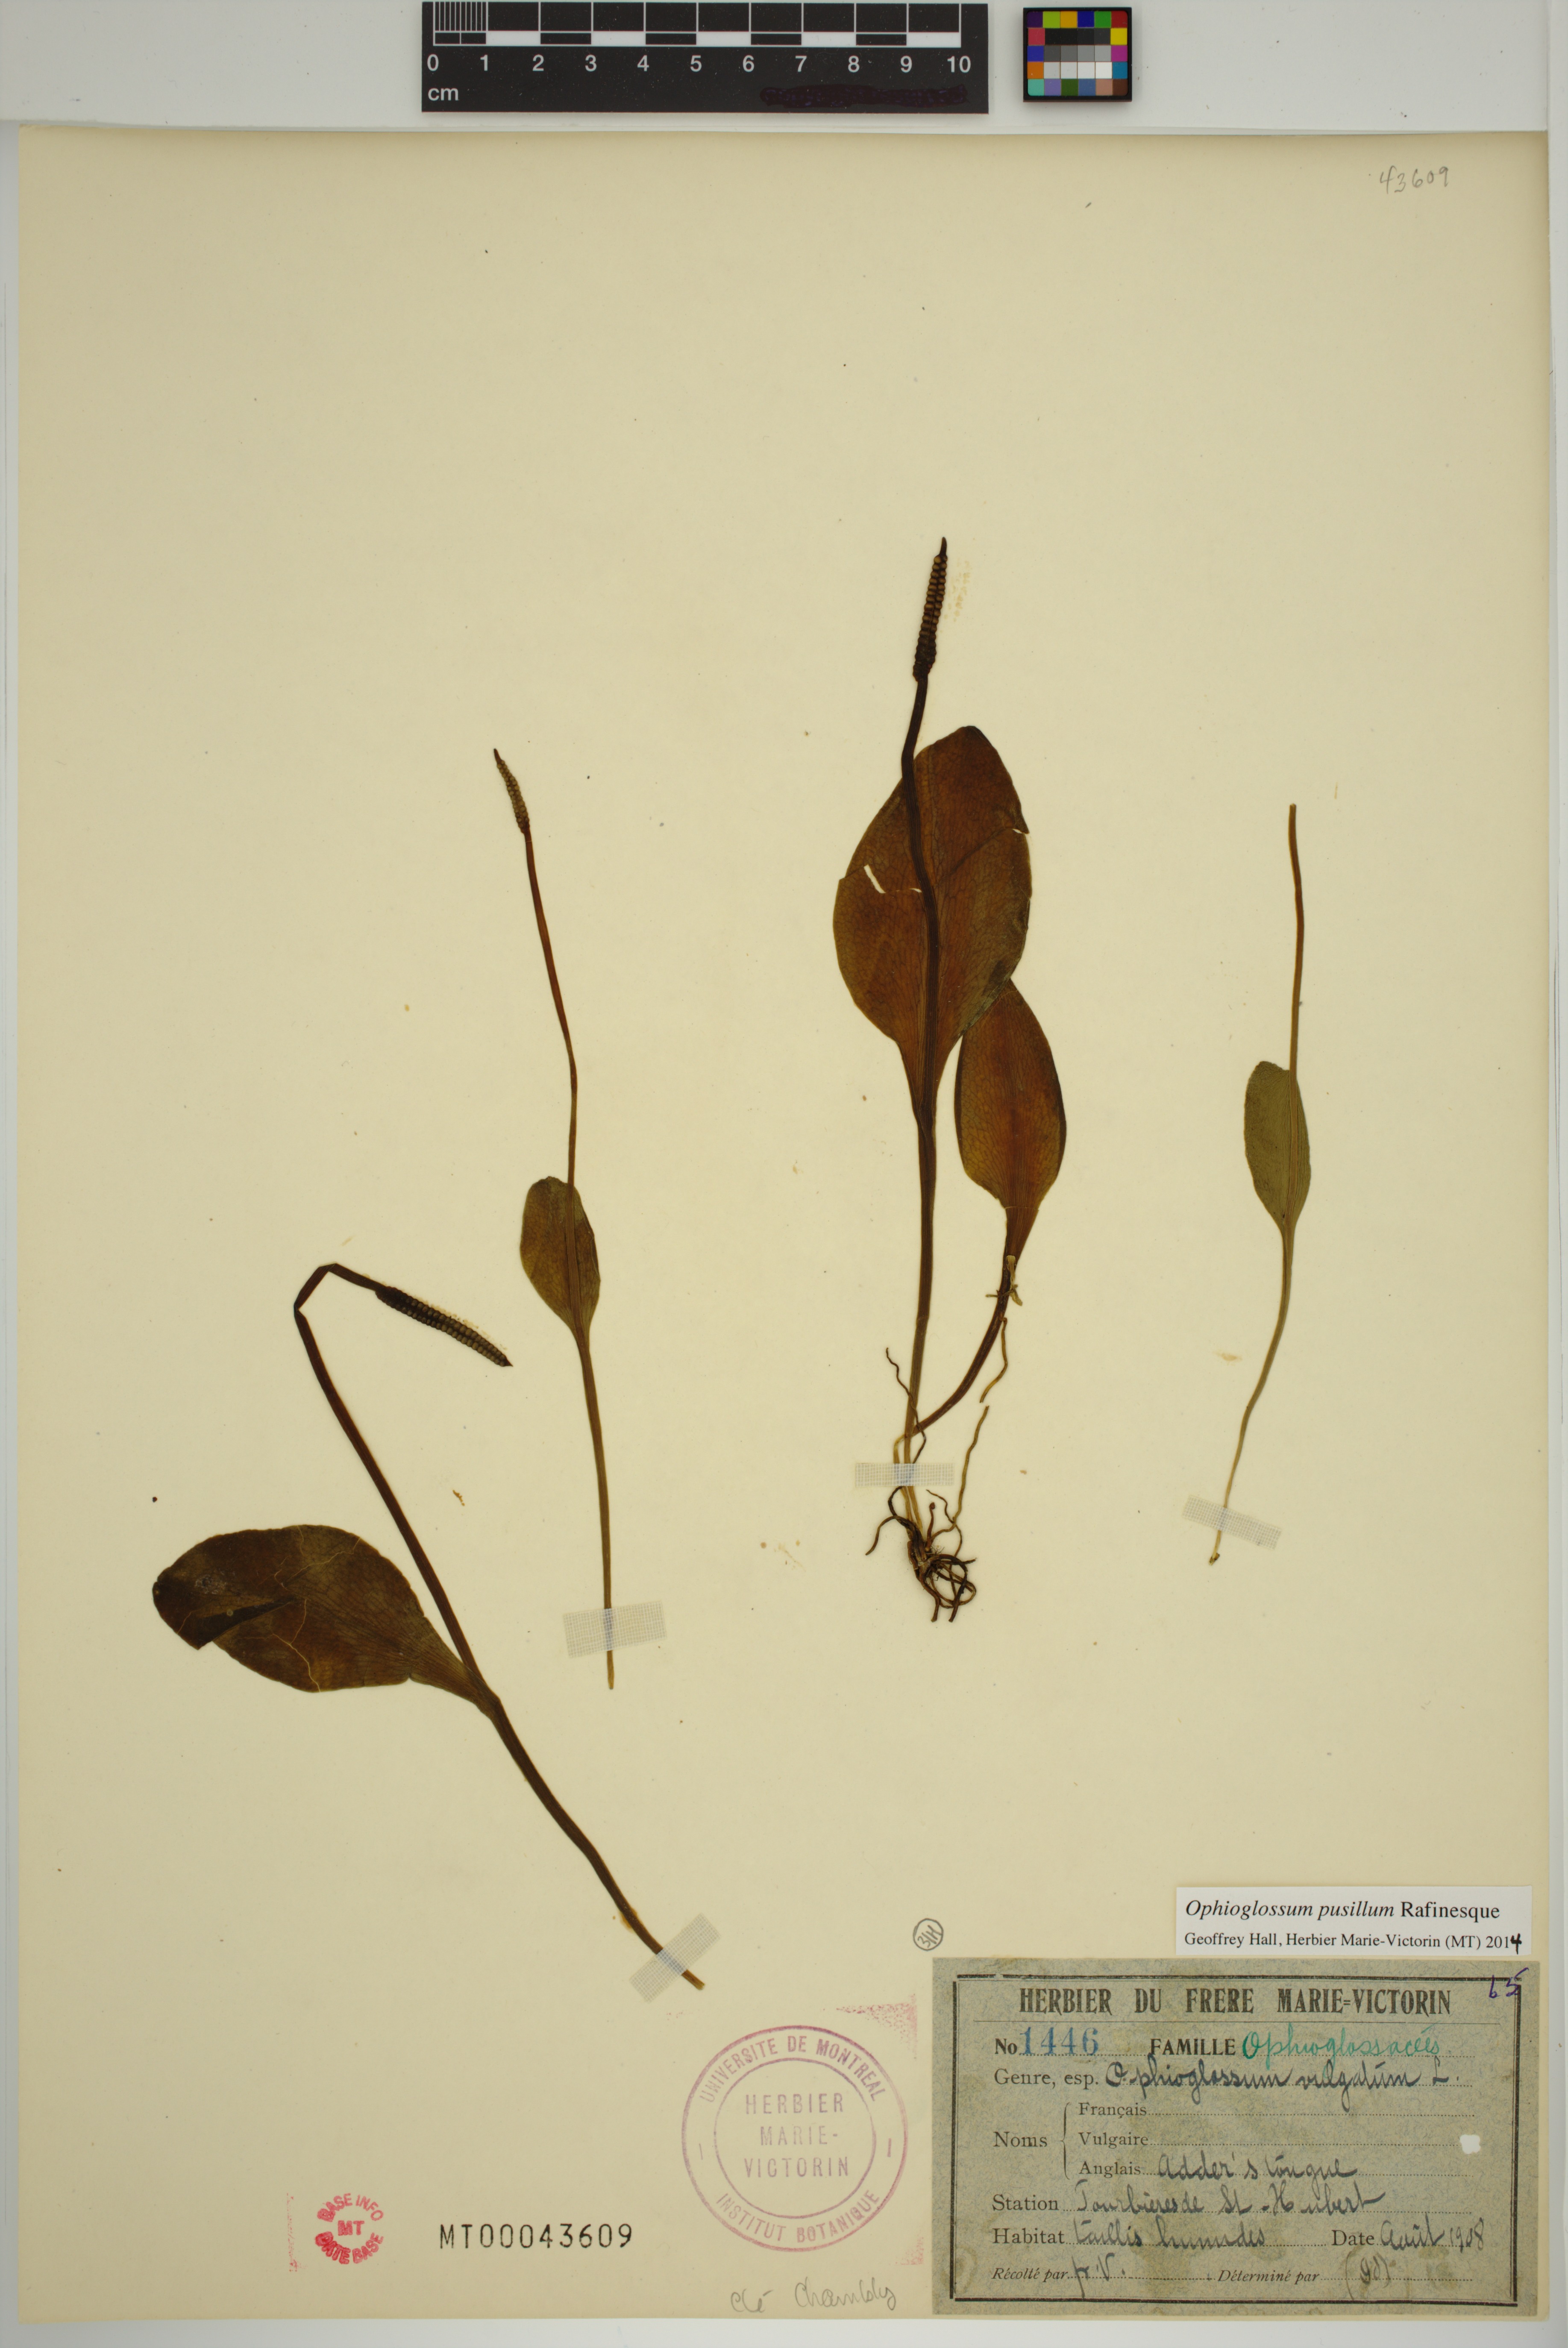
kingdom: Plantae
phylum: Tracheophyta
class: Polypodiopsida
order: Ophioglossales
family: Ophioglossaceae
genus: Ophioglossum
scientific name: Ophioglossum pusillum
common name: Northern adder's-tongue
